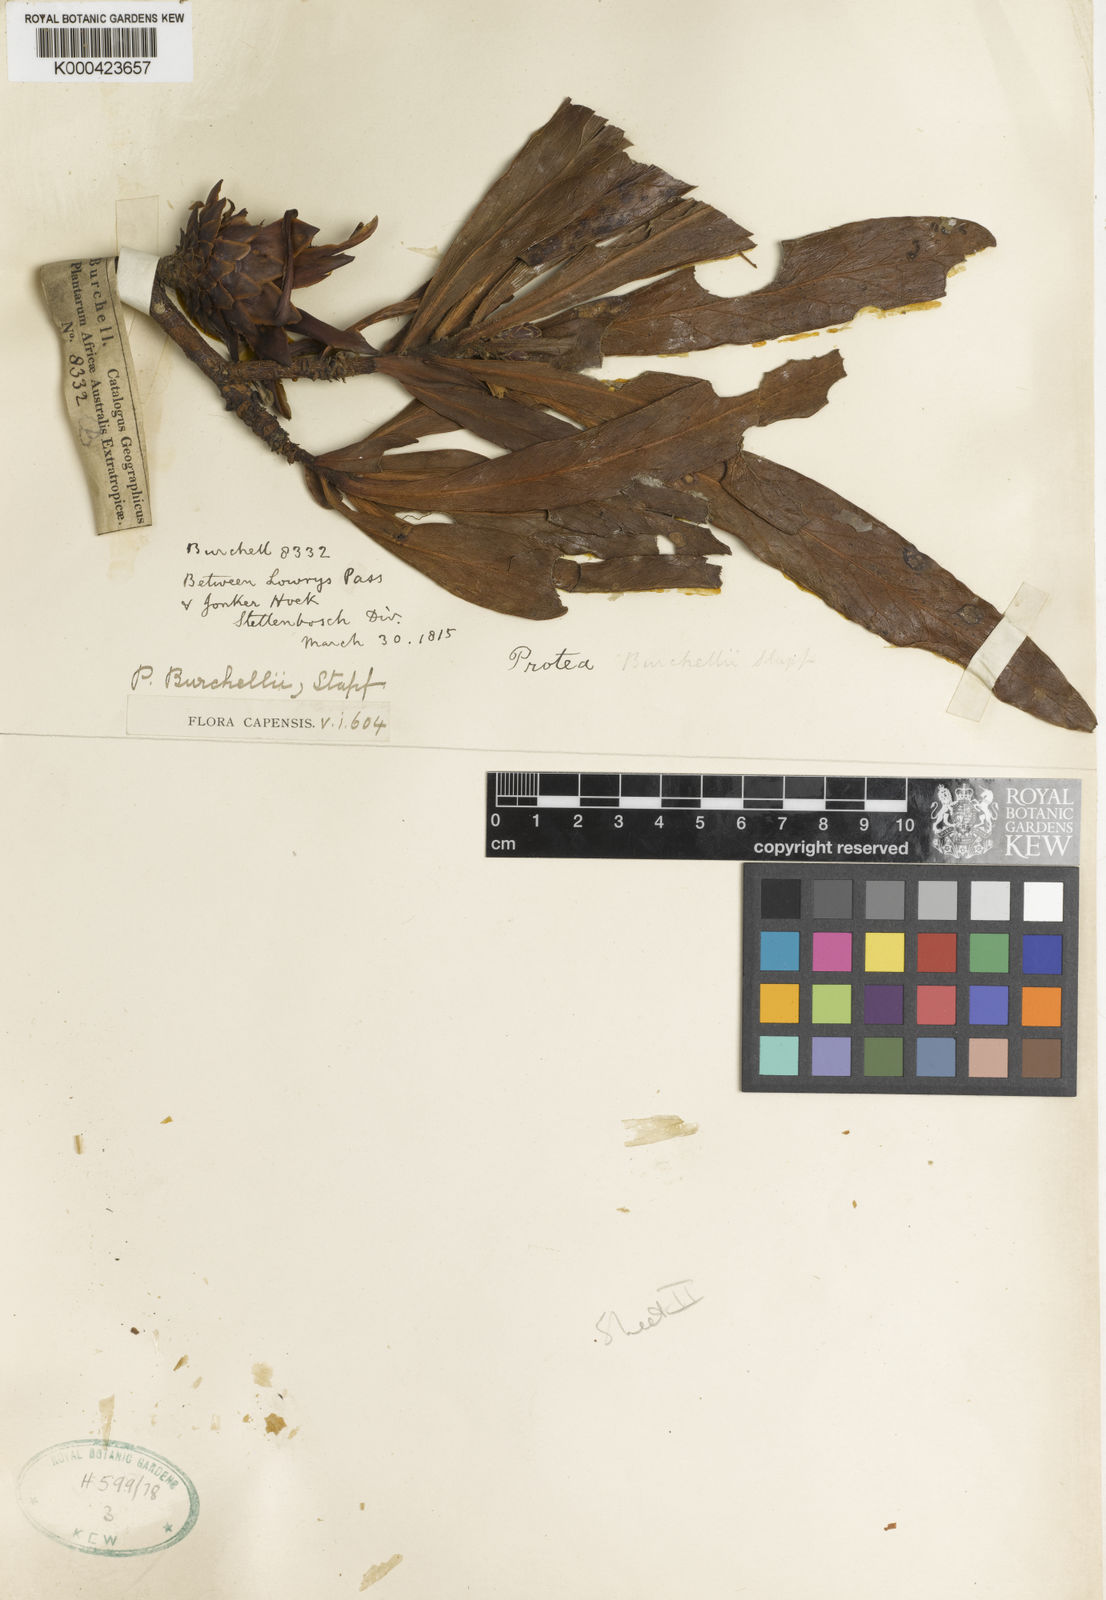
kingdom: Plantae
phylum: Tracheophyta
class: Magnoliopsida
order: Proteales
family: Proteaceae
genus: Protea
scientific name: Protea burchellii
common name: Burchell's sugarbush
